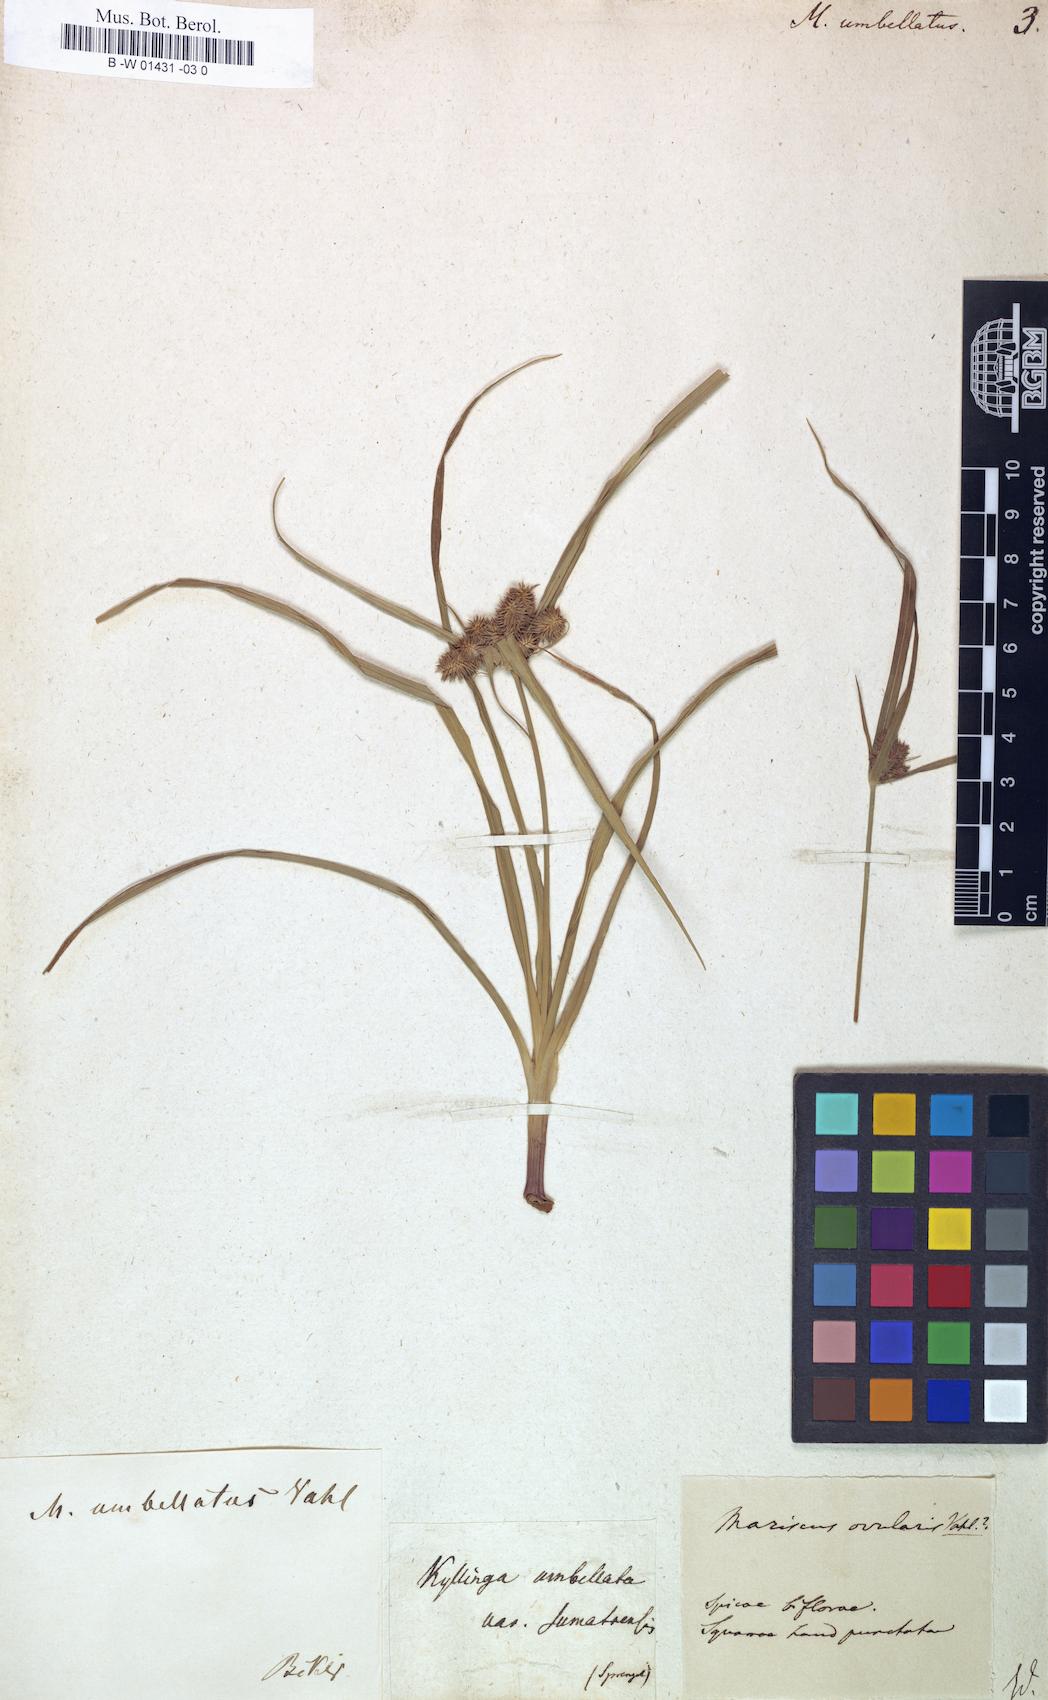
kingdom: Plantae
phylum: Tracheophyta
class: Liliopsida
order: Poales
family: Cyperaceae
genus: Cyperus
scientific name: Cyperus retrorsus
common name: Pinebarren flat sedge
